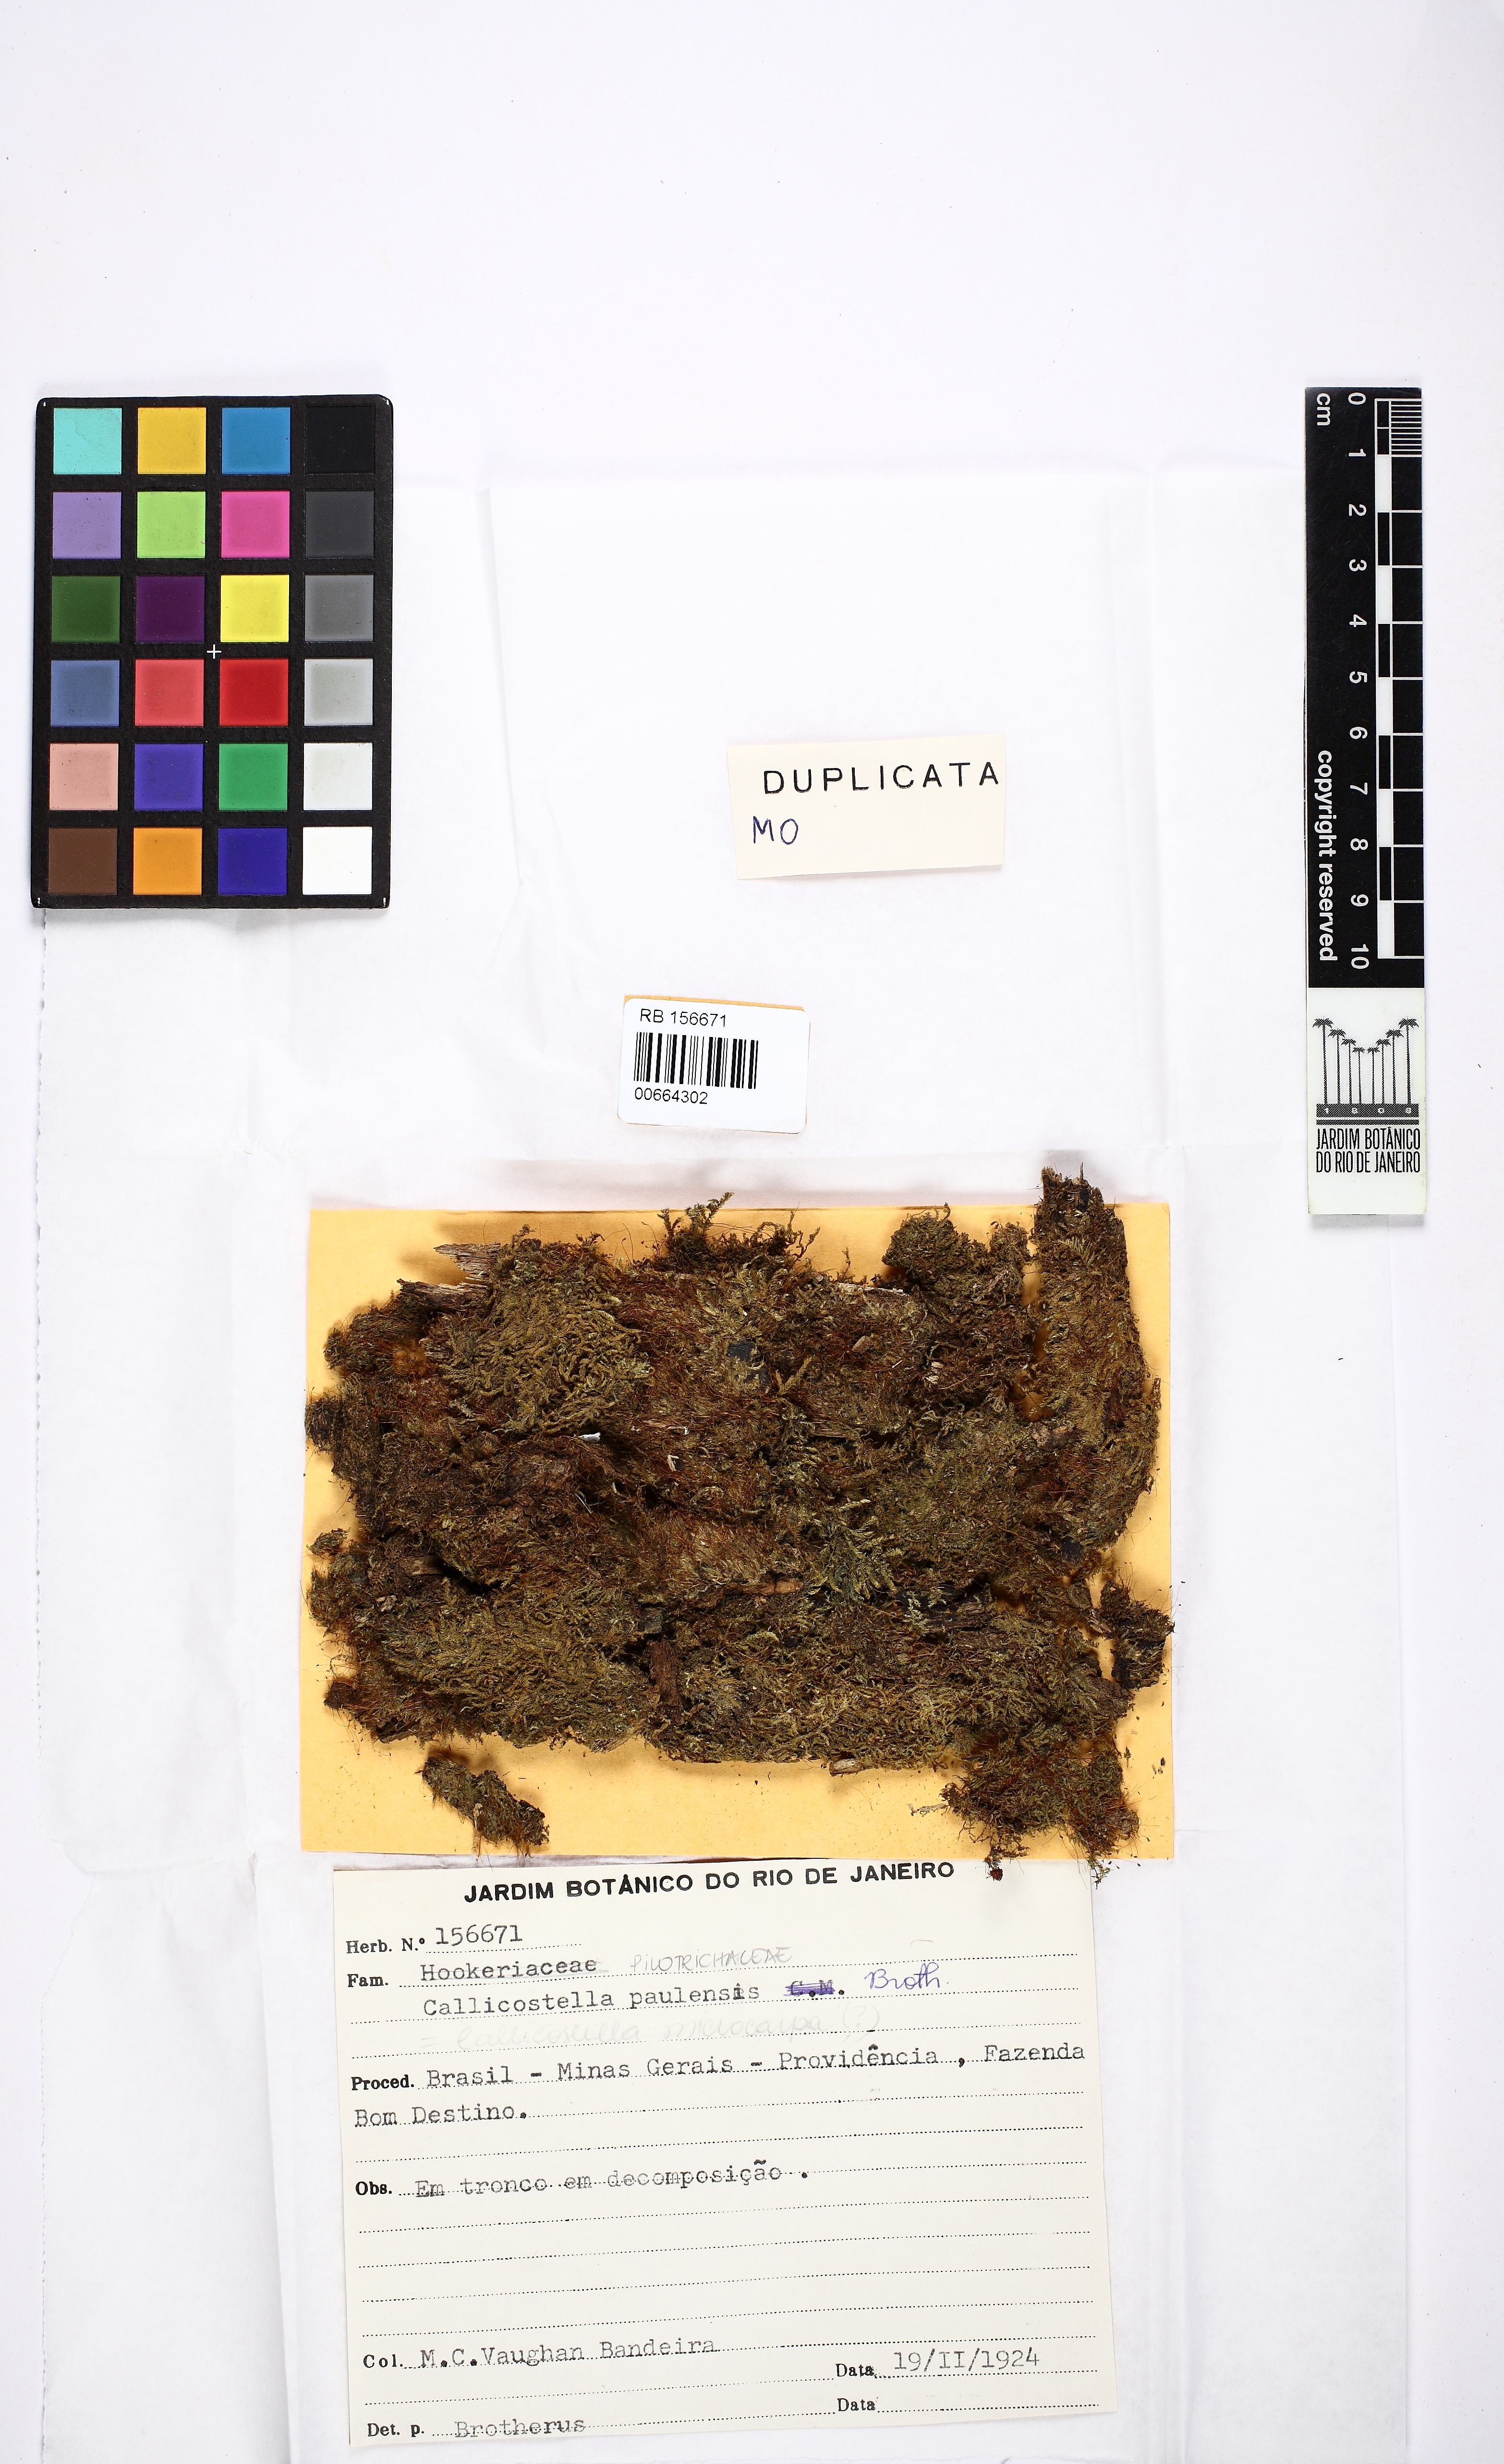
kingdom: Plantae
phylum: Bryophyta
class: Bryopsida
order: Hookeriales
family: Pilotrichaceae
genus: Callicostella
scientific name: Callicostella paulensis
